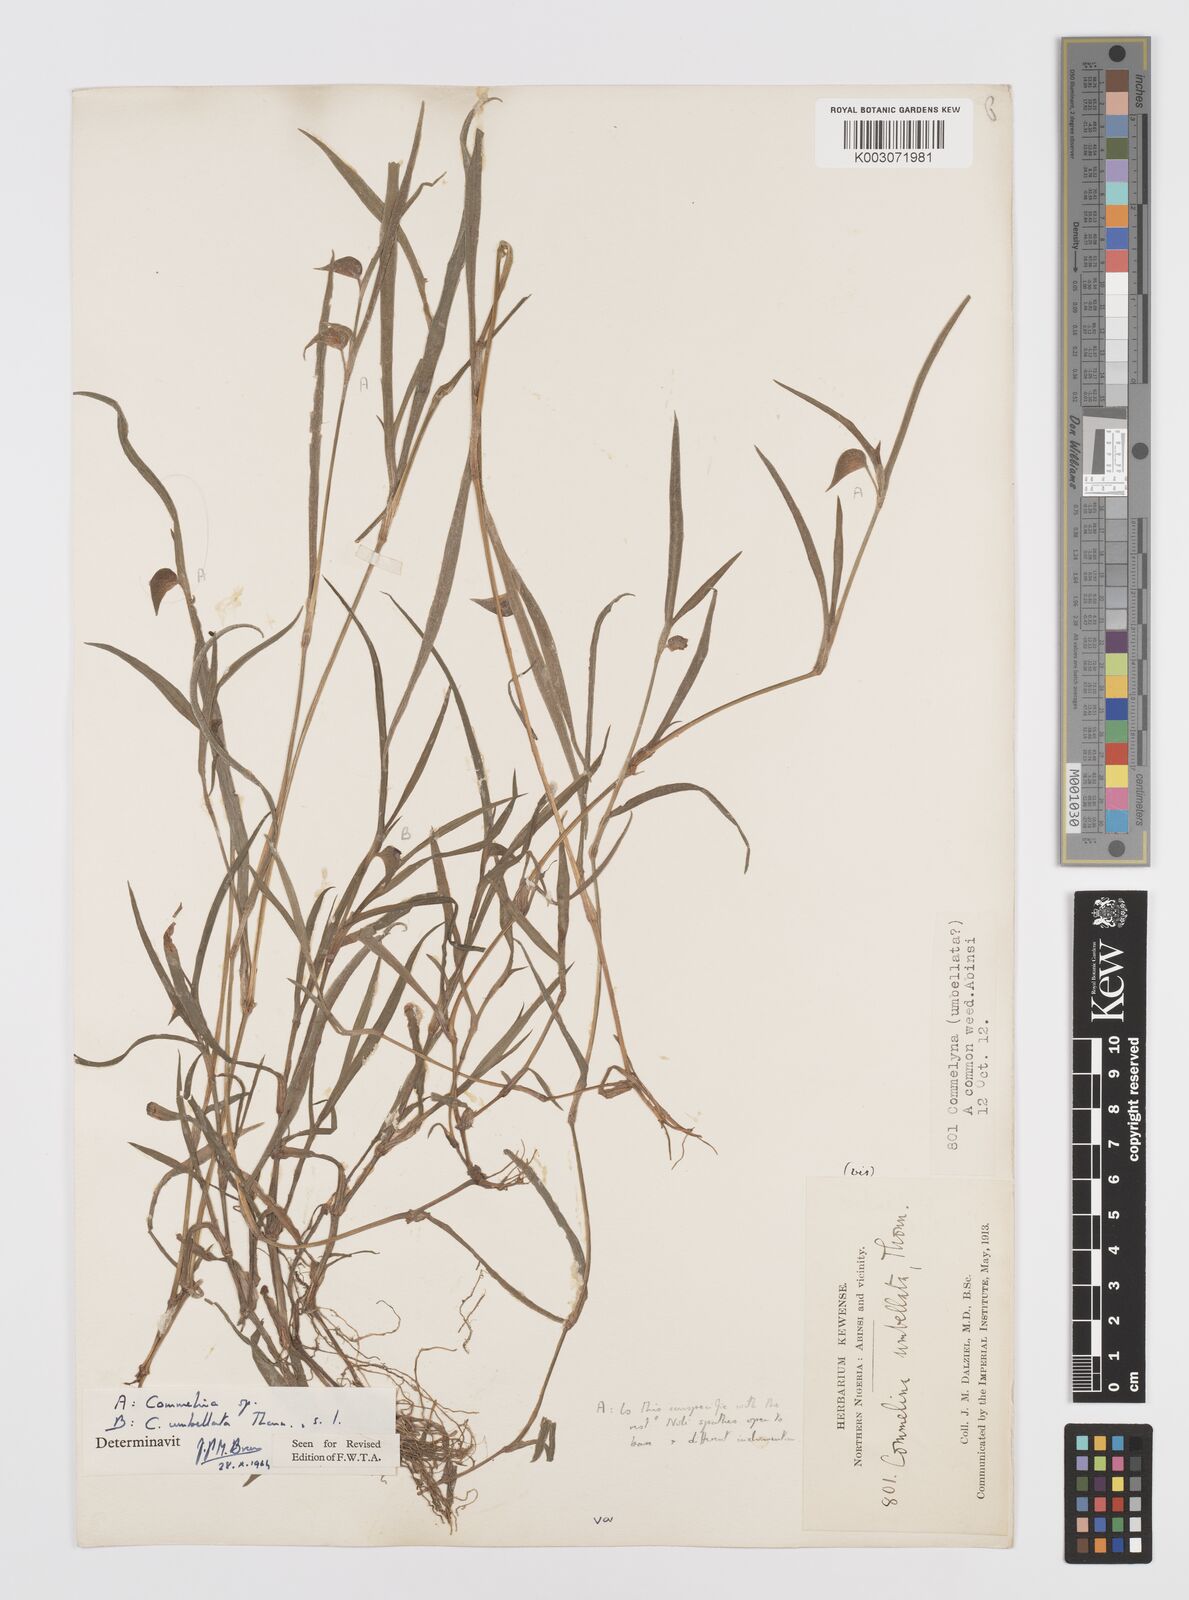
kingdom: Plantae
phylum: Tracheophyta
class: Liliopsida
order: Commelinales
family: Commelinaceae
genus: Commelina
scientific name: Commelina
